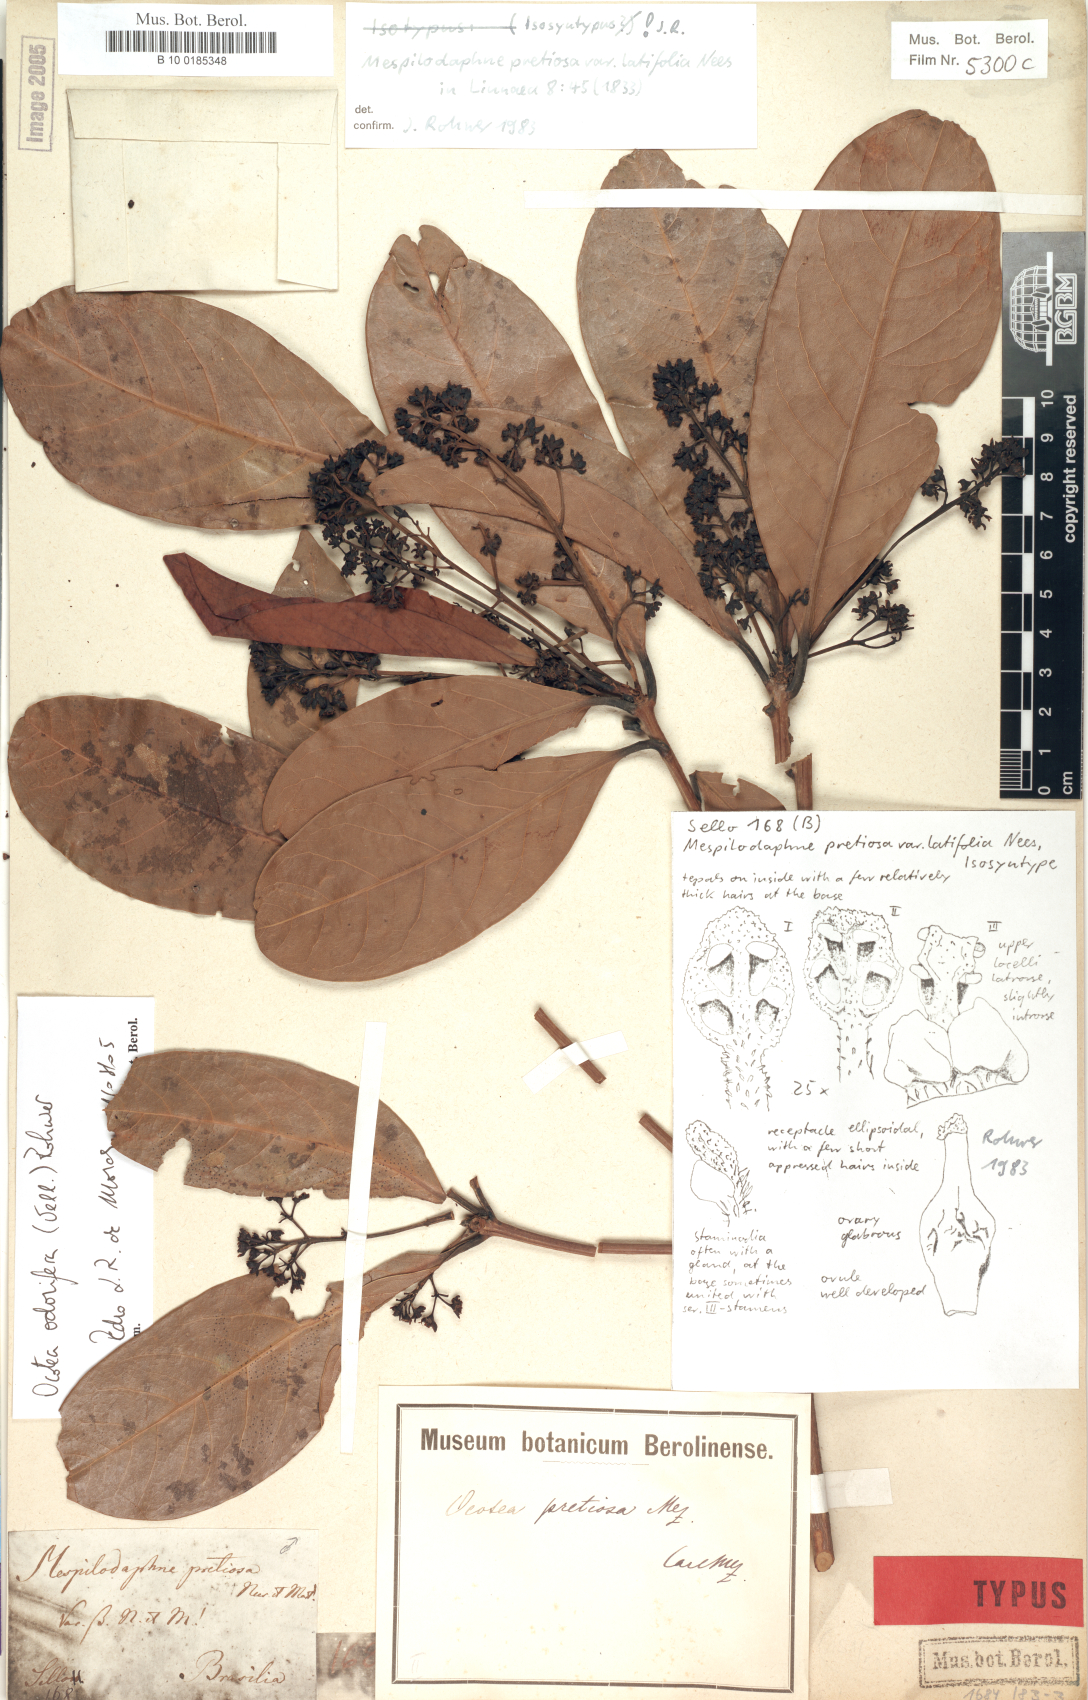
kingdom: Plantae
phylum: Tracheophyta
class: Magnoliopsida
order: Laurales
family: Lauraceae
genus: Mespilodaphne
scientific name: Mespilodaphne quixos
